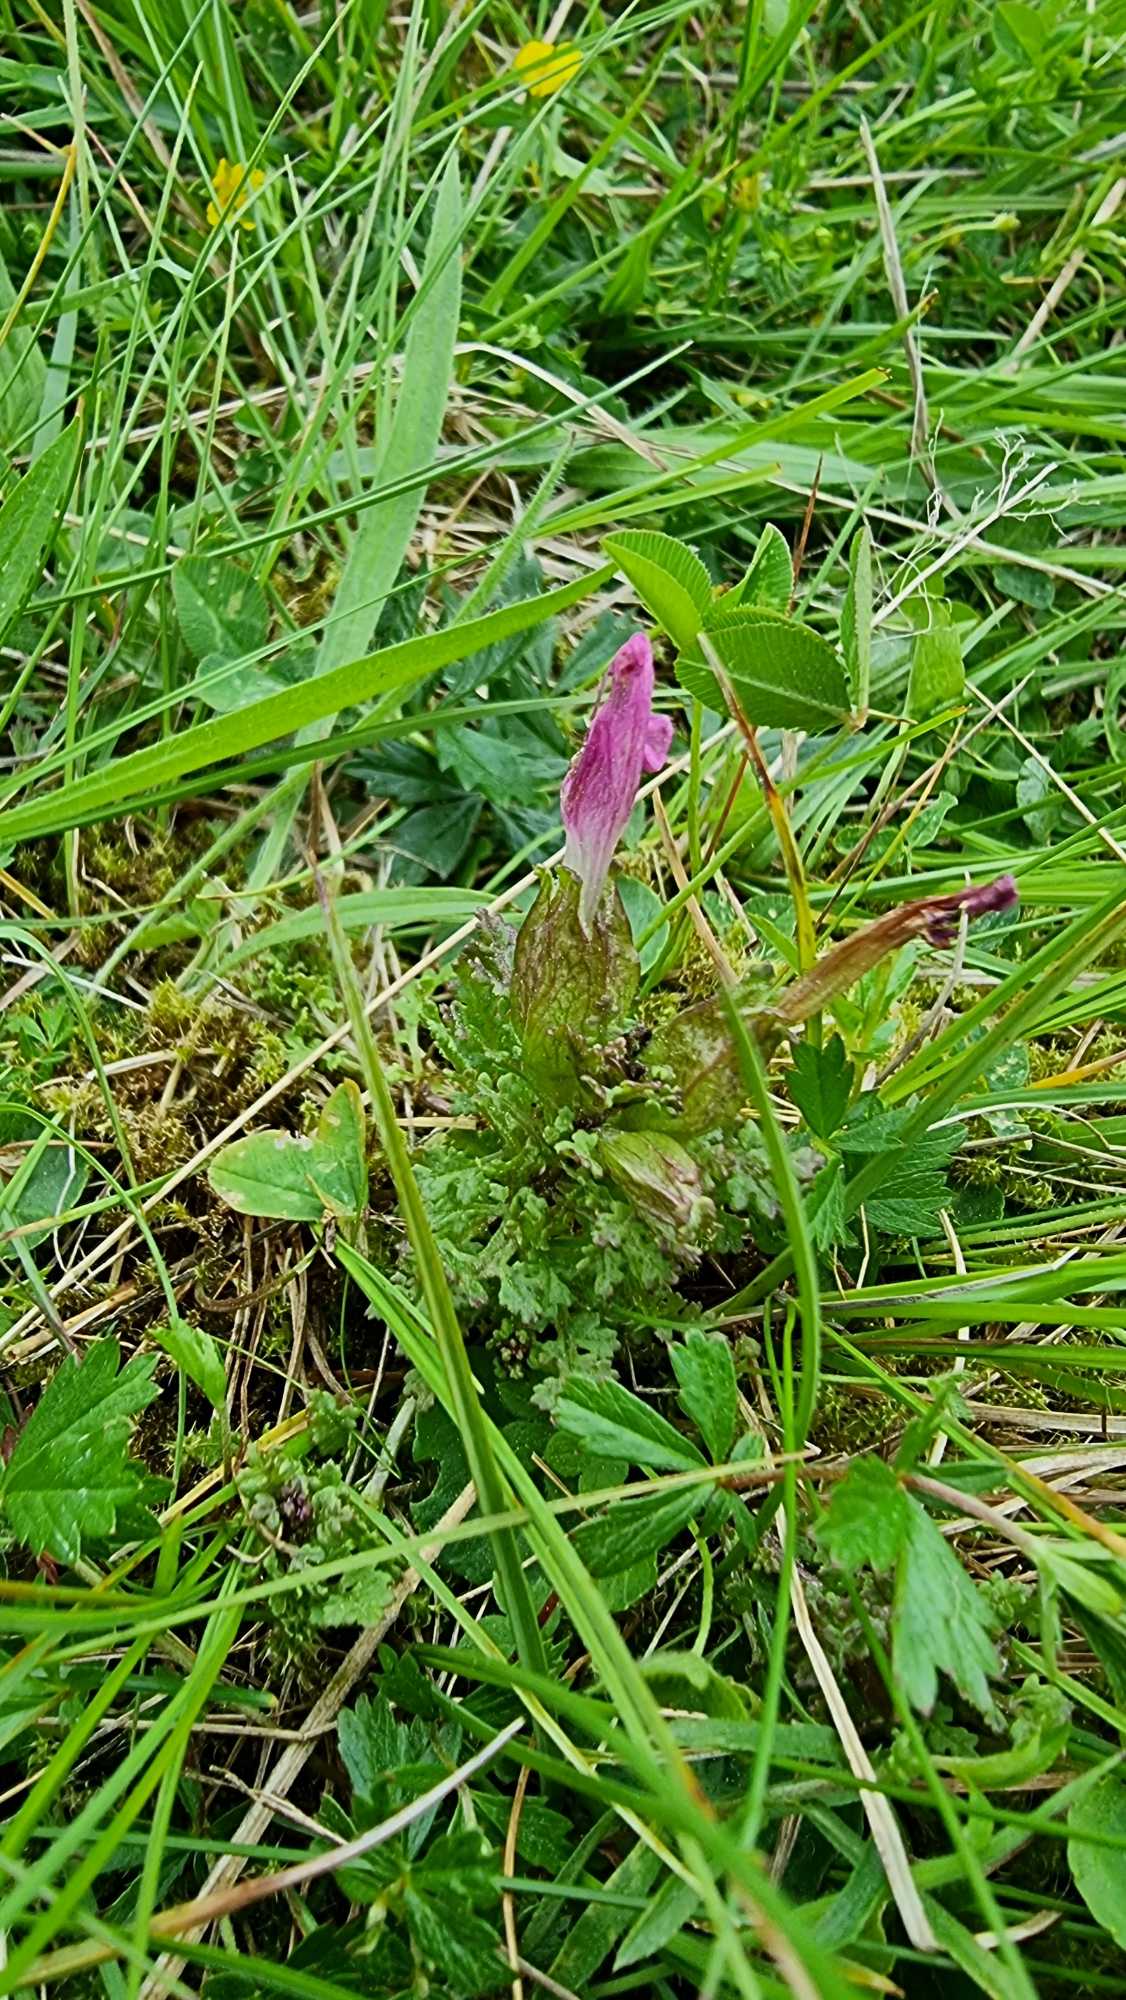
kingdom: Plantae
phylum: Tracheophyta
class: Magnoliopsida
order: Lamiales
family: Orobanchaceae
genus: Pedicularis
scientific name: Pedicularis sylvatica
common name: Mose-troldurt
